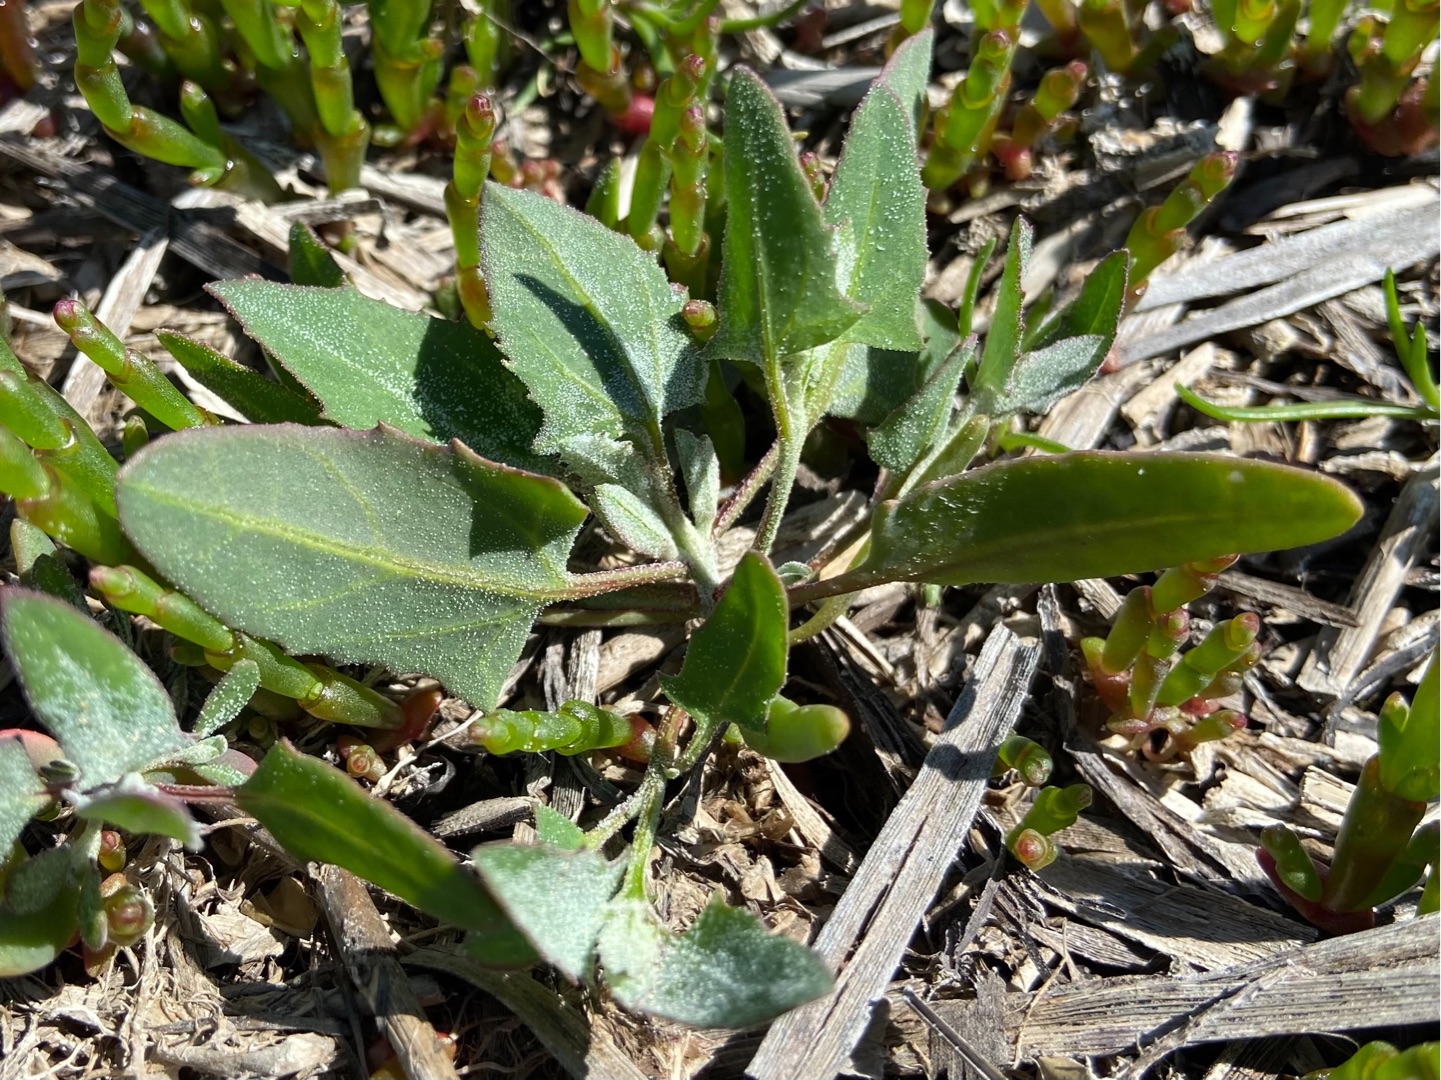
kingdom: Plantae
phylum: Tracheophyta
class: Magnoliopsida
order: Caryophyllales
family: Amaranthaceae
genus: Atriplex
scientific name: Atriplex prostrata
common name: Spyd-mælde
